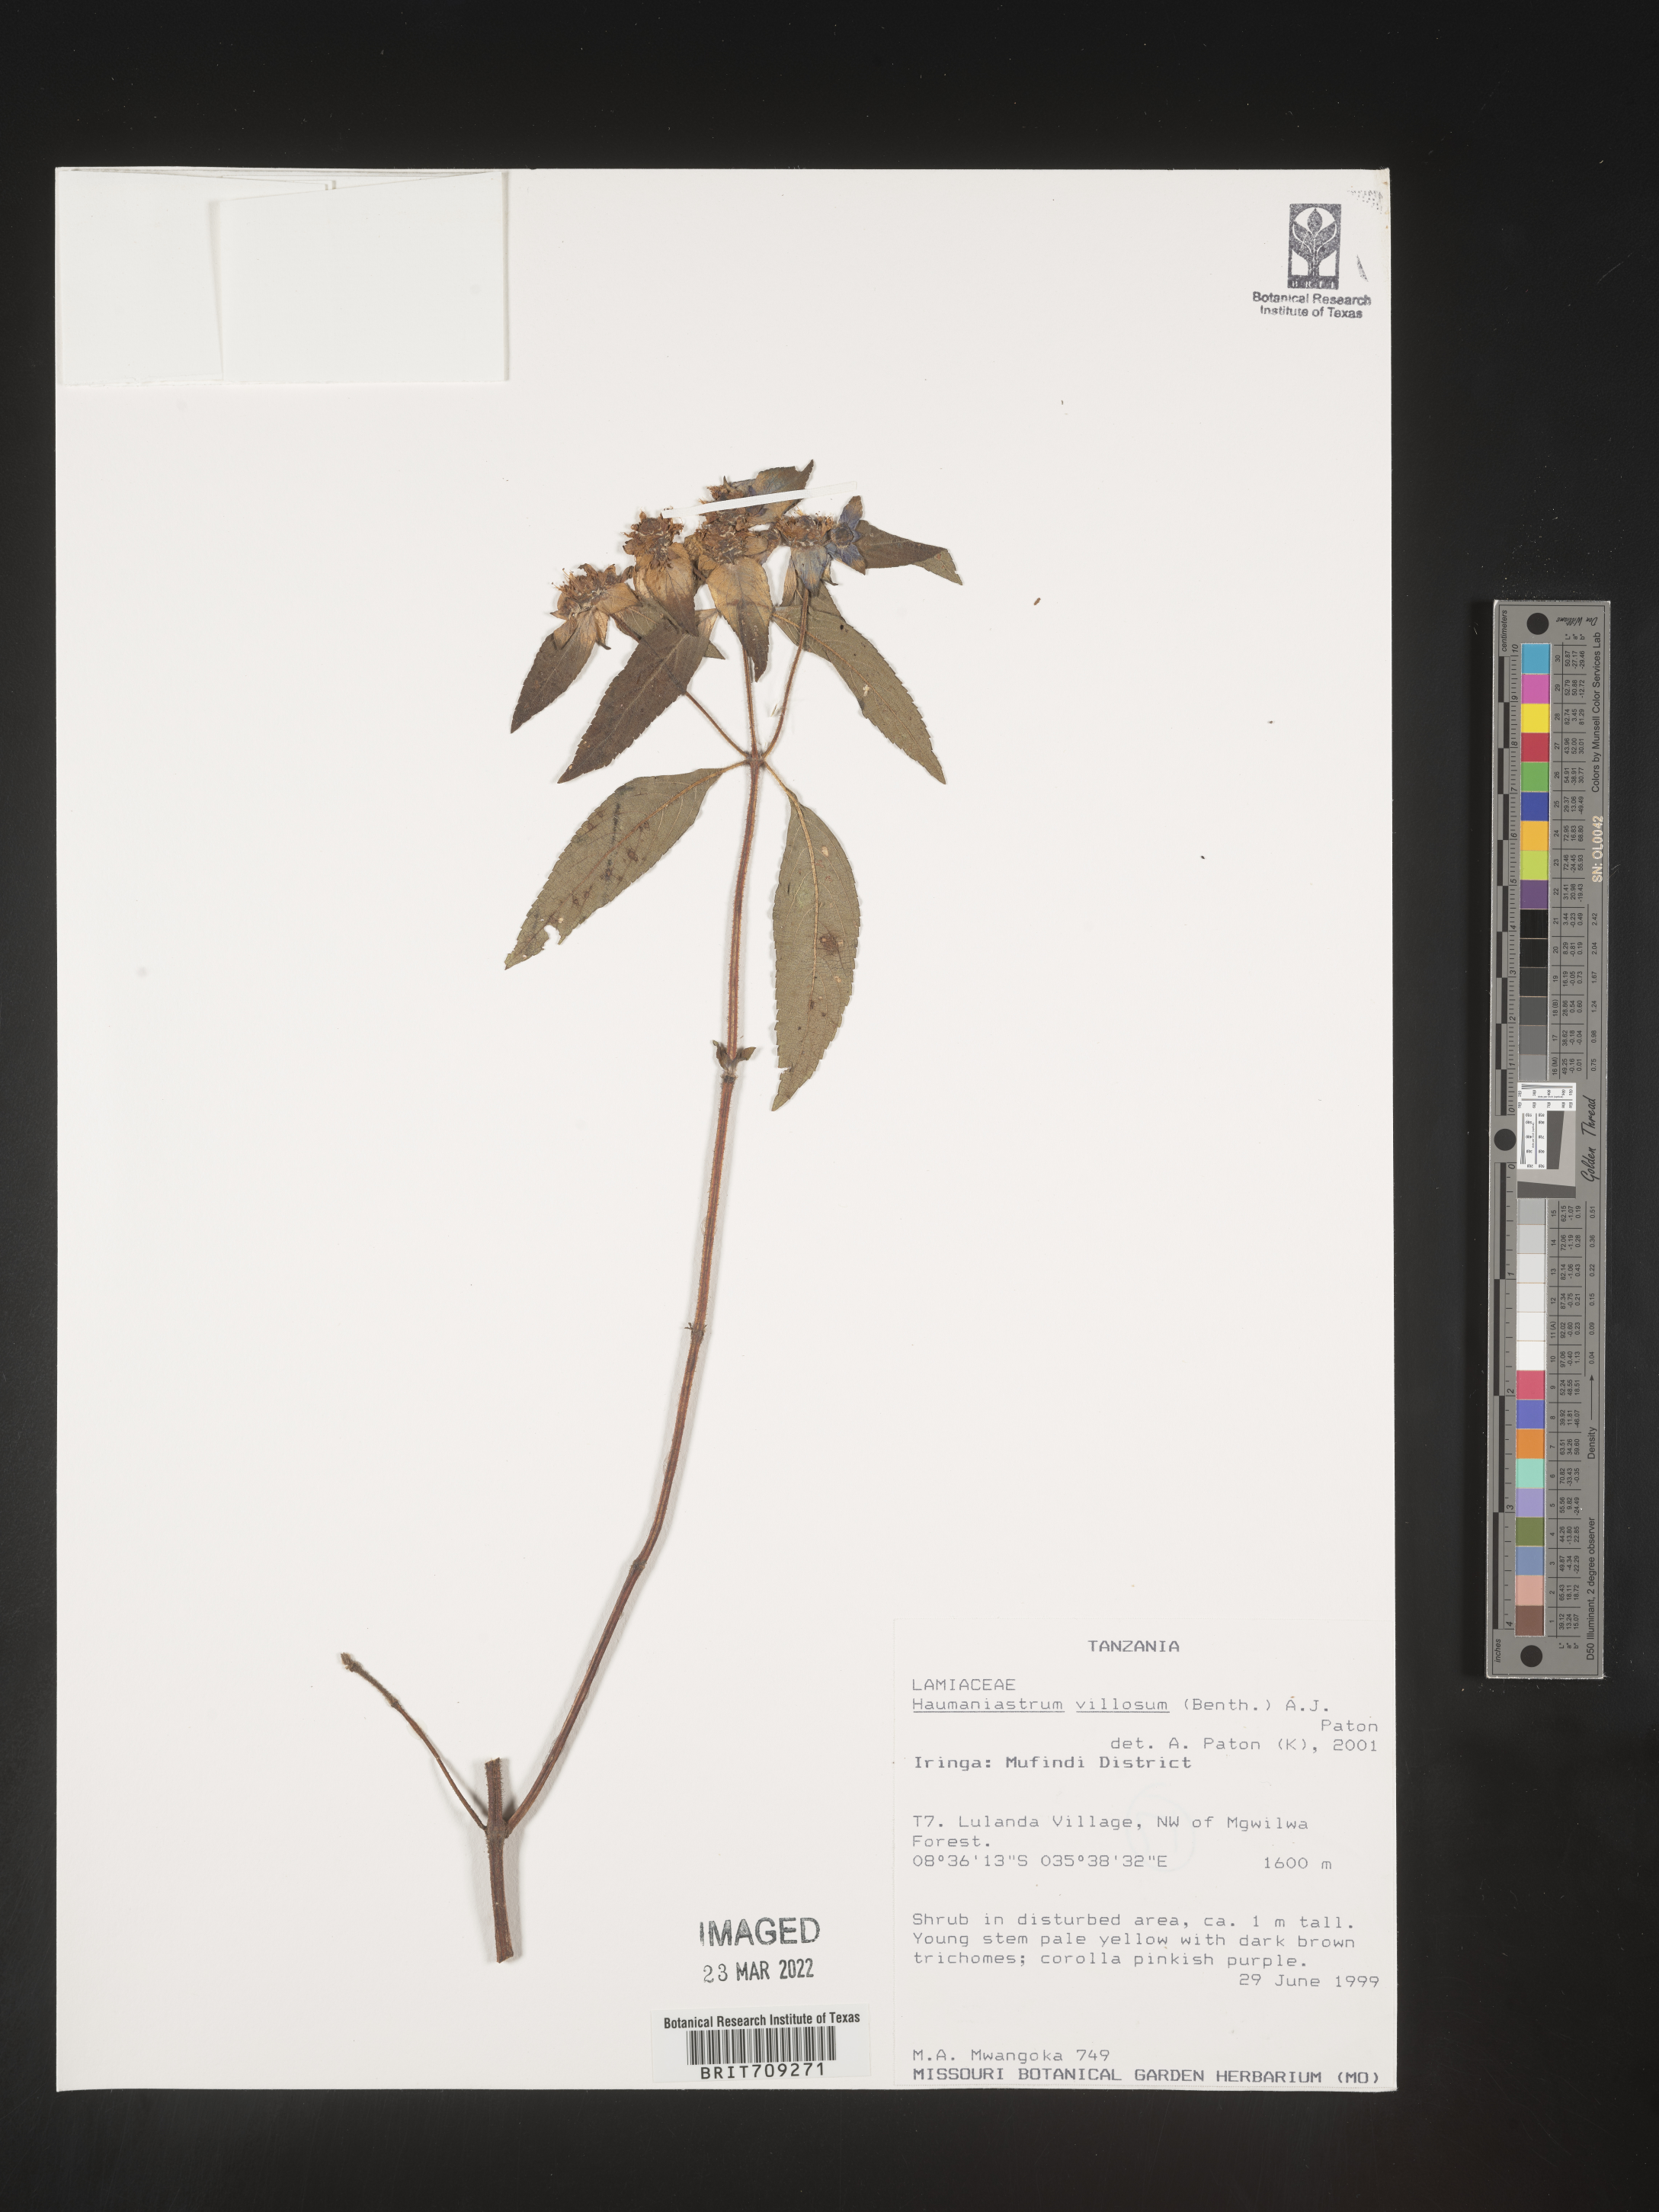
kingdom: Plantae
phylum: Tracheophyta
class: Magnoliopsida
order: Lamiales
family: Lamiaceae
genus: Haumaniastrum
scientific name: Haumaniastrum
